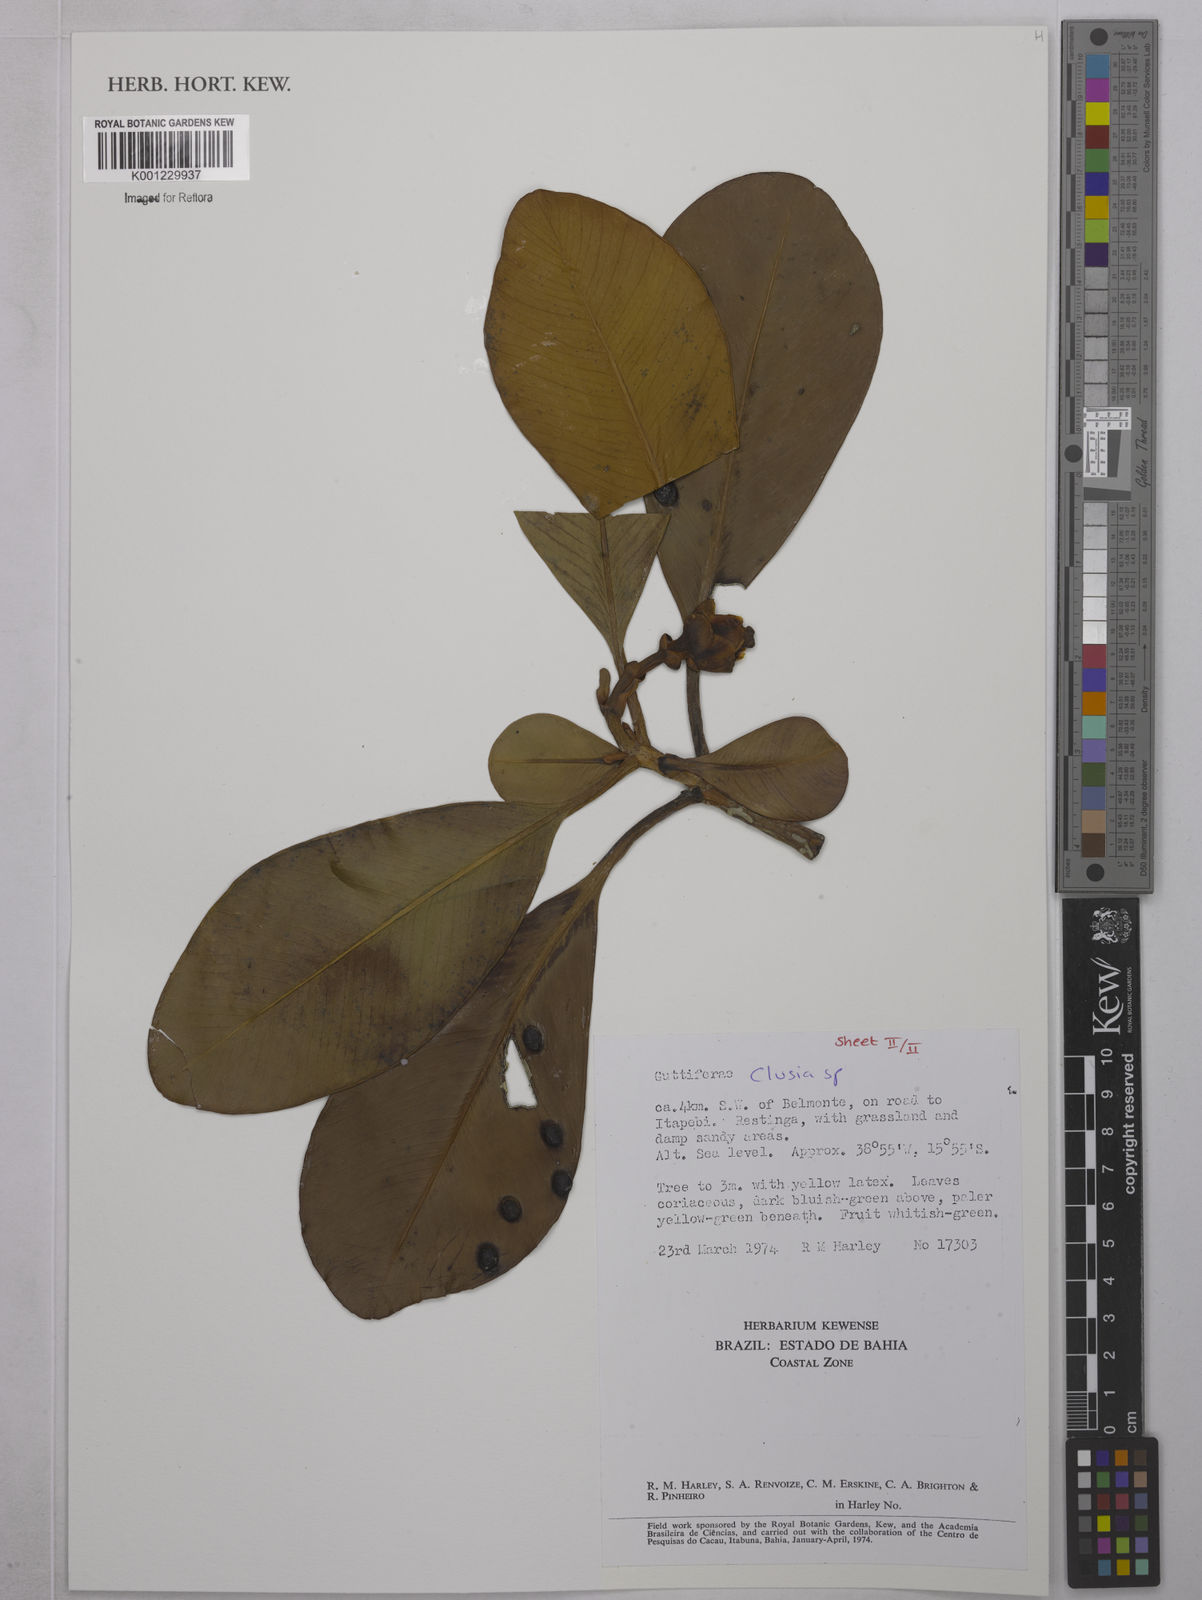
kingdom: Plantae
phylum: Tracheophyta
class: Magnoliopsida
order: Malpighiales
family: Clusiaceae
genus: Clusia
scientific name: Clusia
